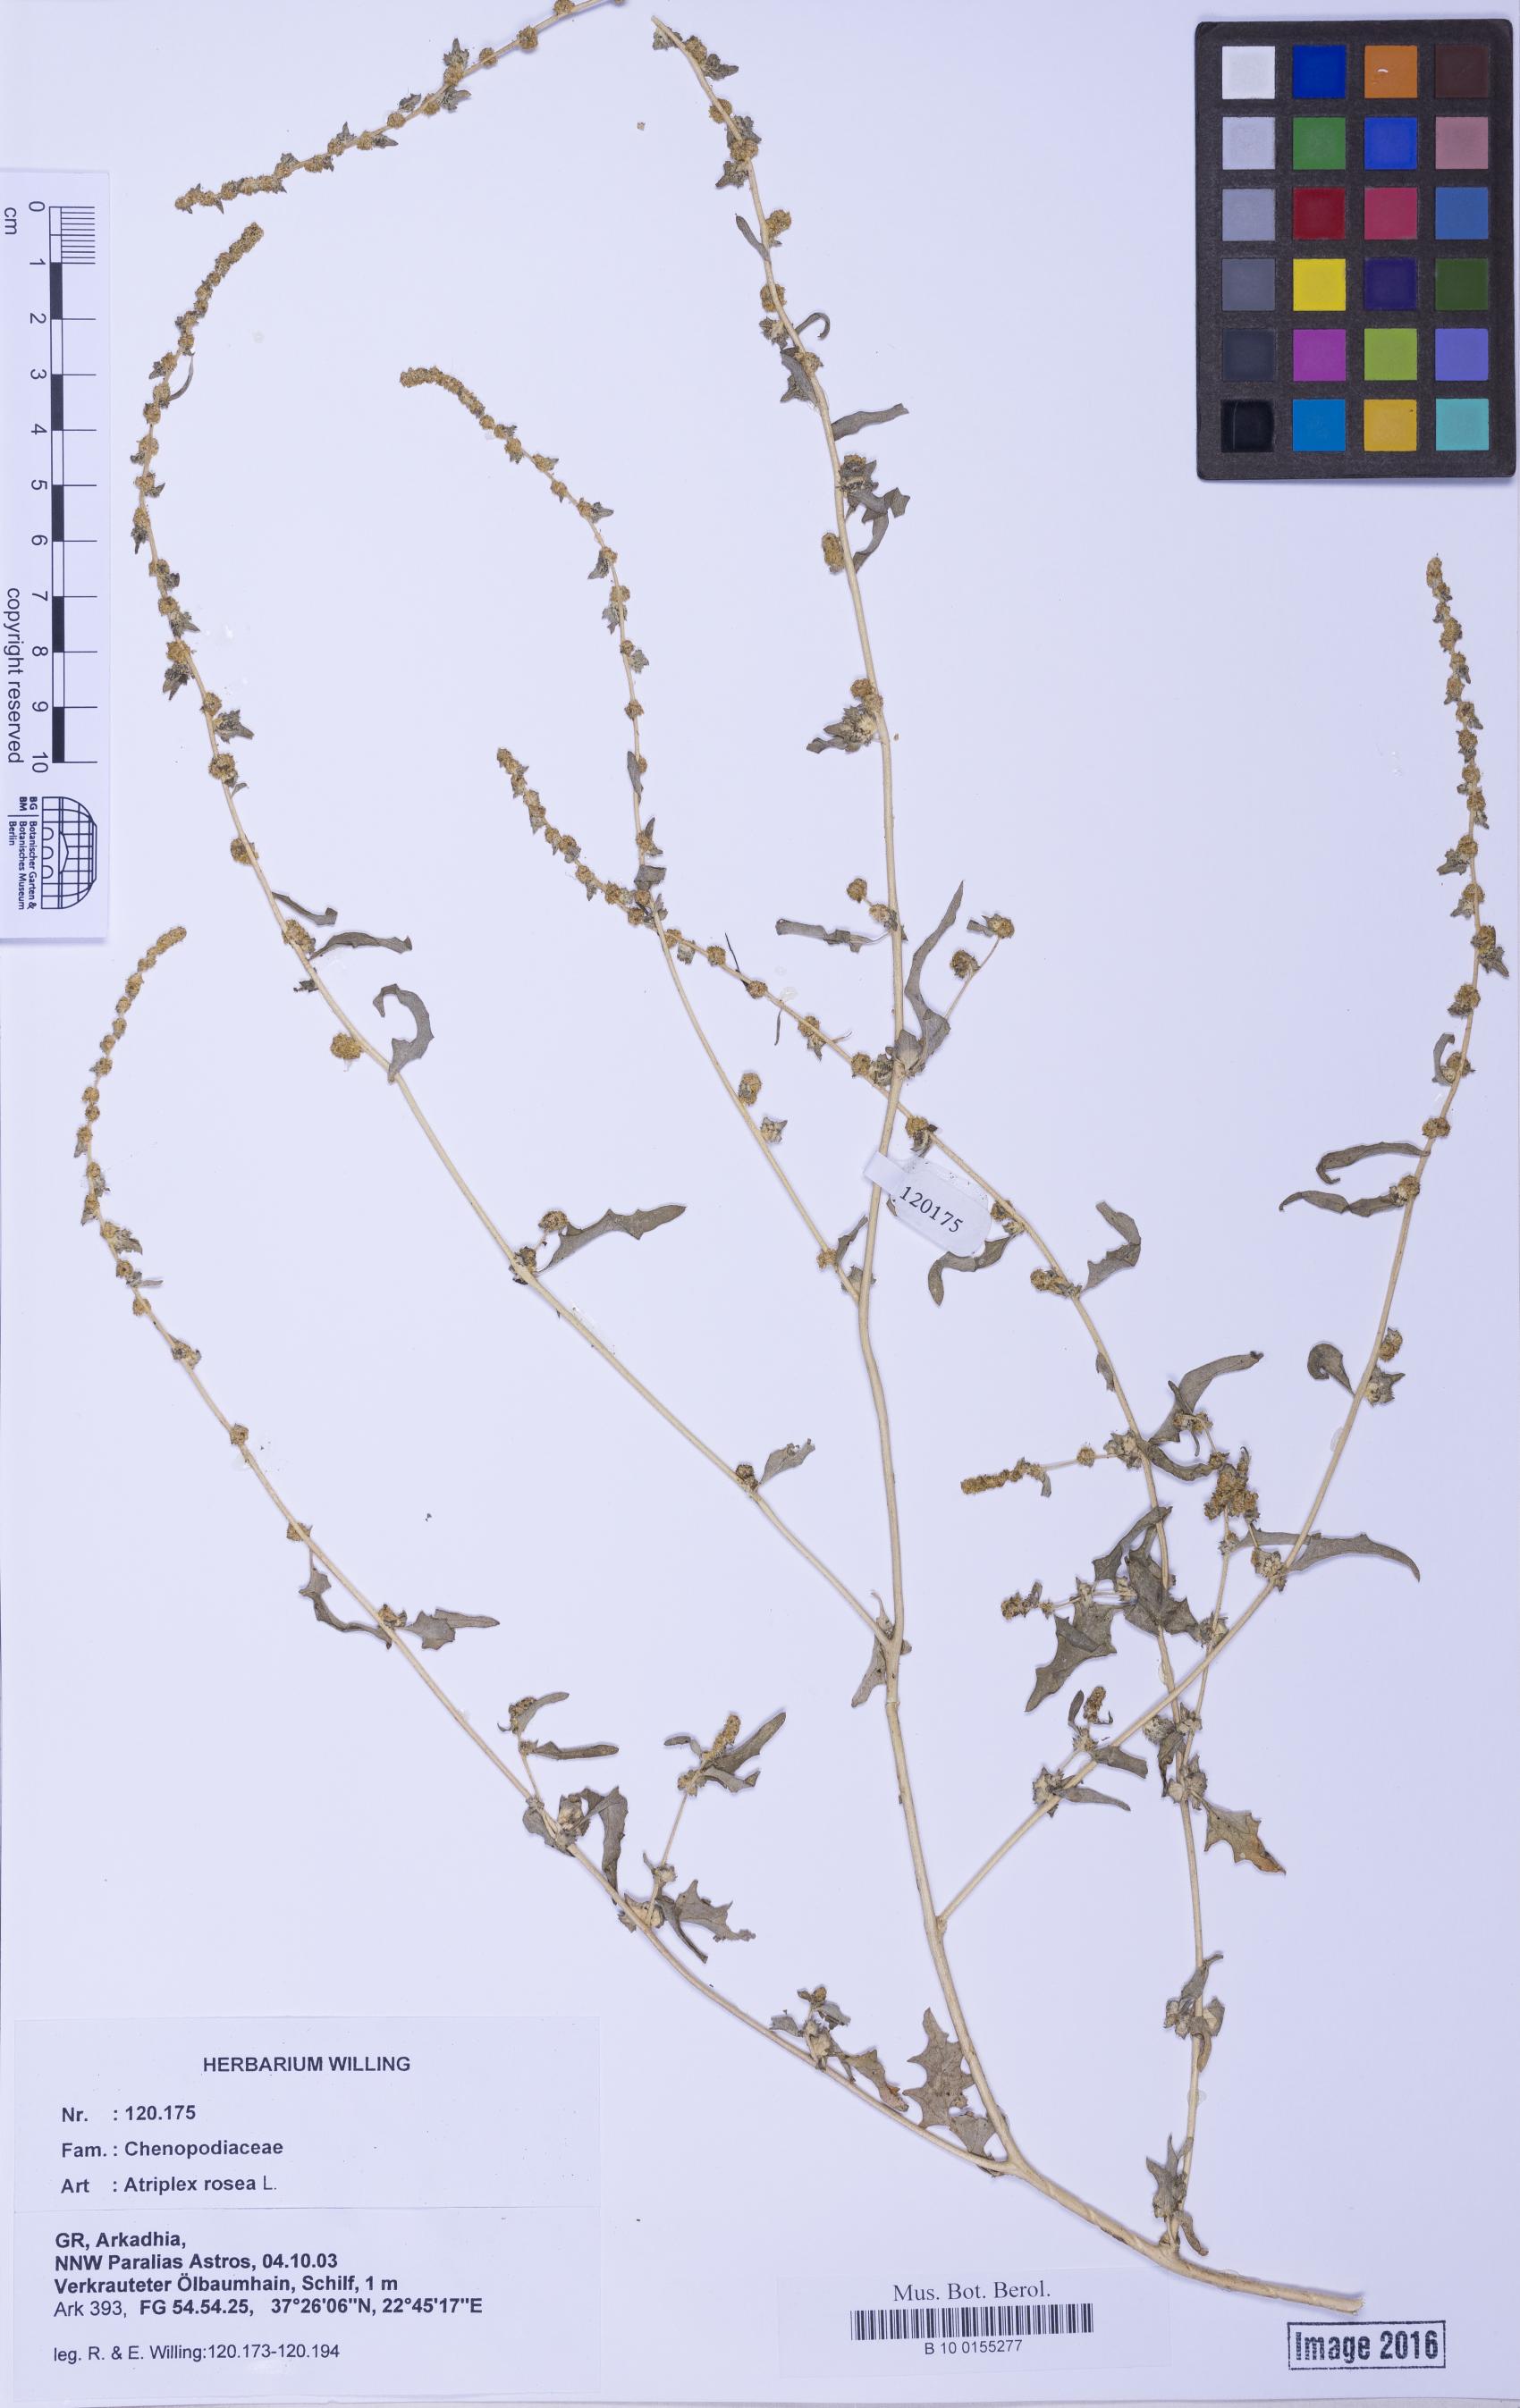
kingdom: Plantae
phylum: Tracheophyta
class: Magnoliopsida
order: Caryophyllales
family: Amaranthaceae
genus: Atriplex
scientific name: Atriplex tatarica
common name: Tatarian orache
